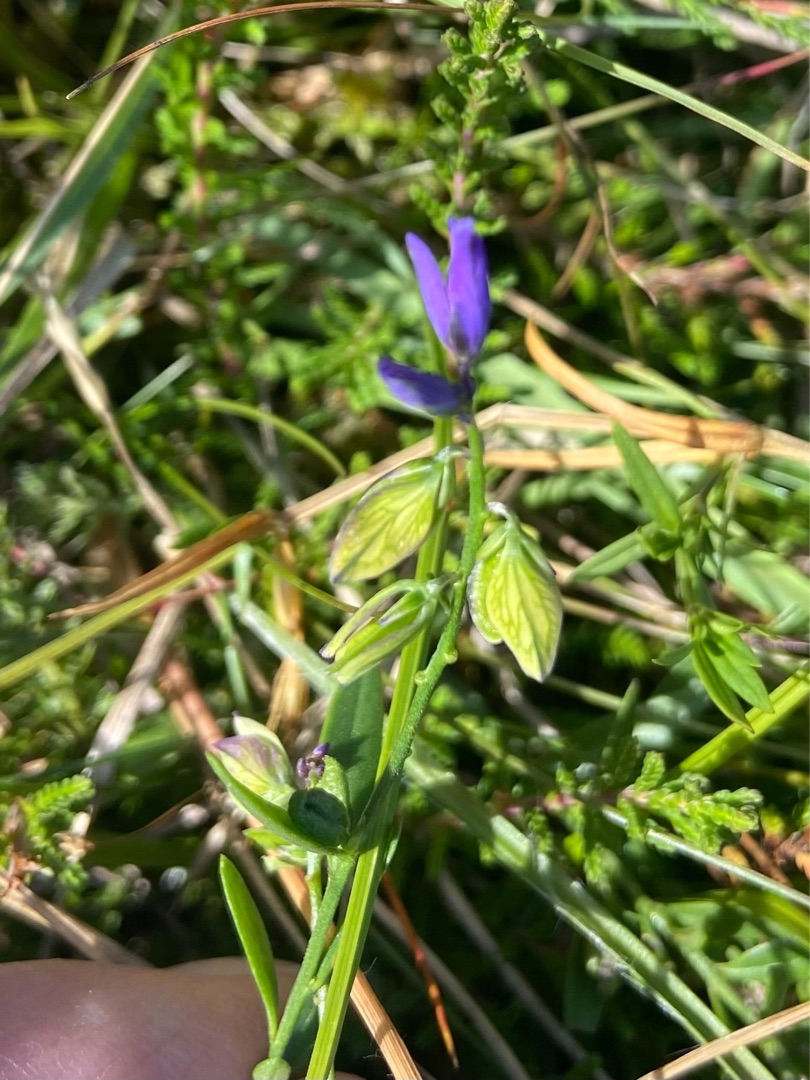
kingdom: Plantae
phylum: Tracheophyta
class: Magnoliopsida
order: Fabales
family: Polygalaceae
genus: Polygala
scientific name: Polygala vulgaris
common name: Almindelig mælkeurt
